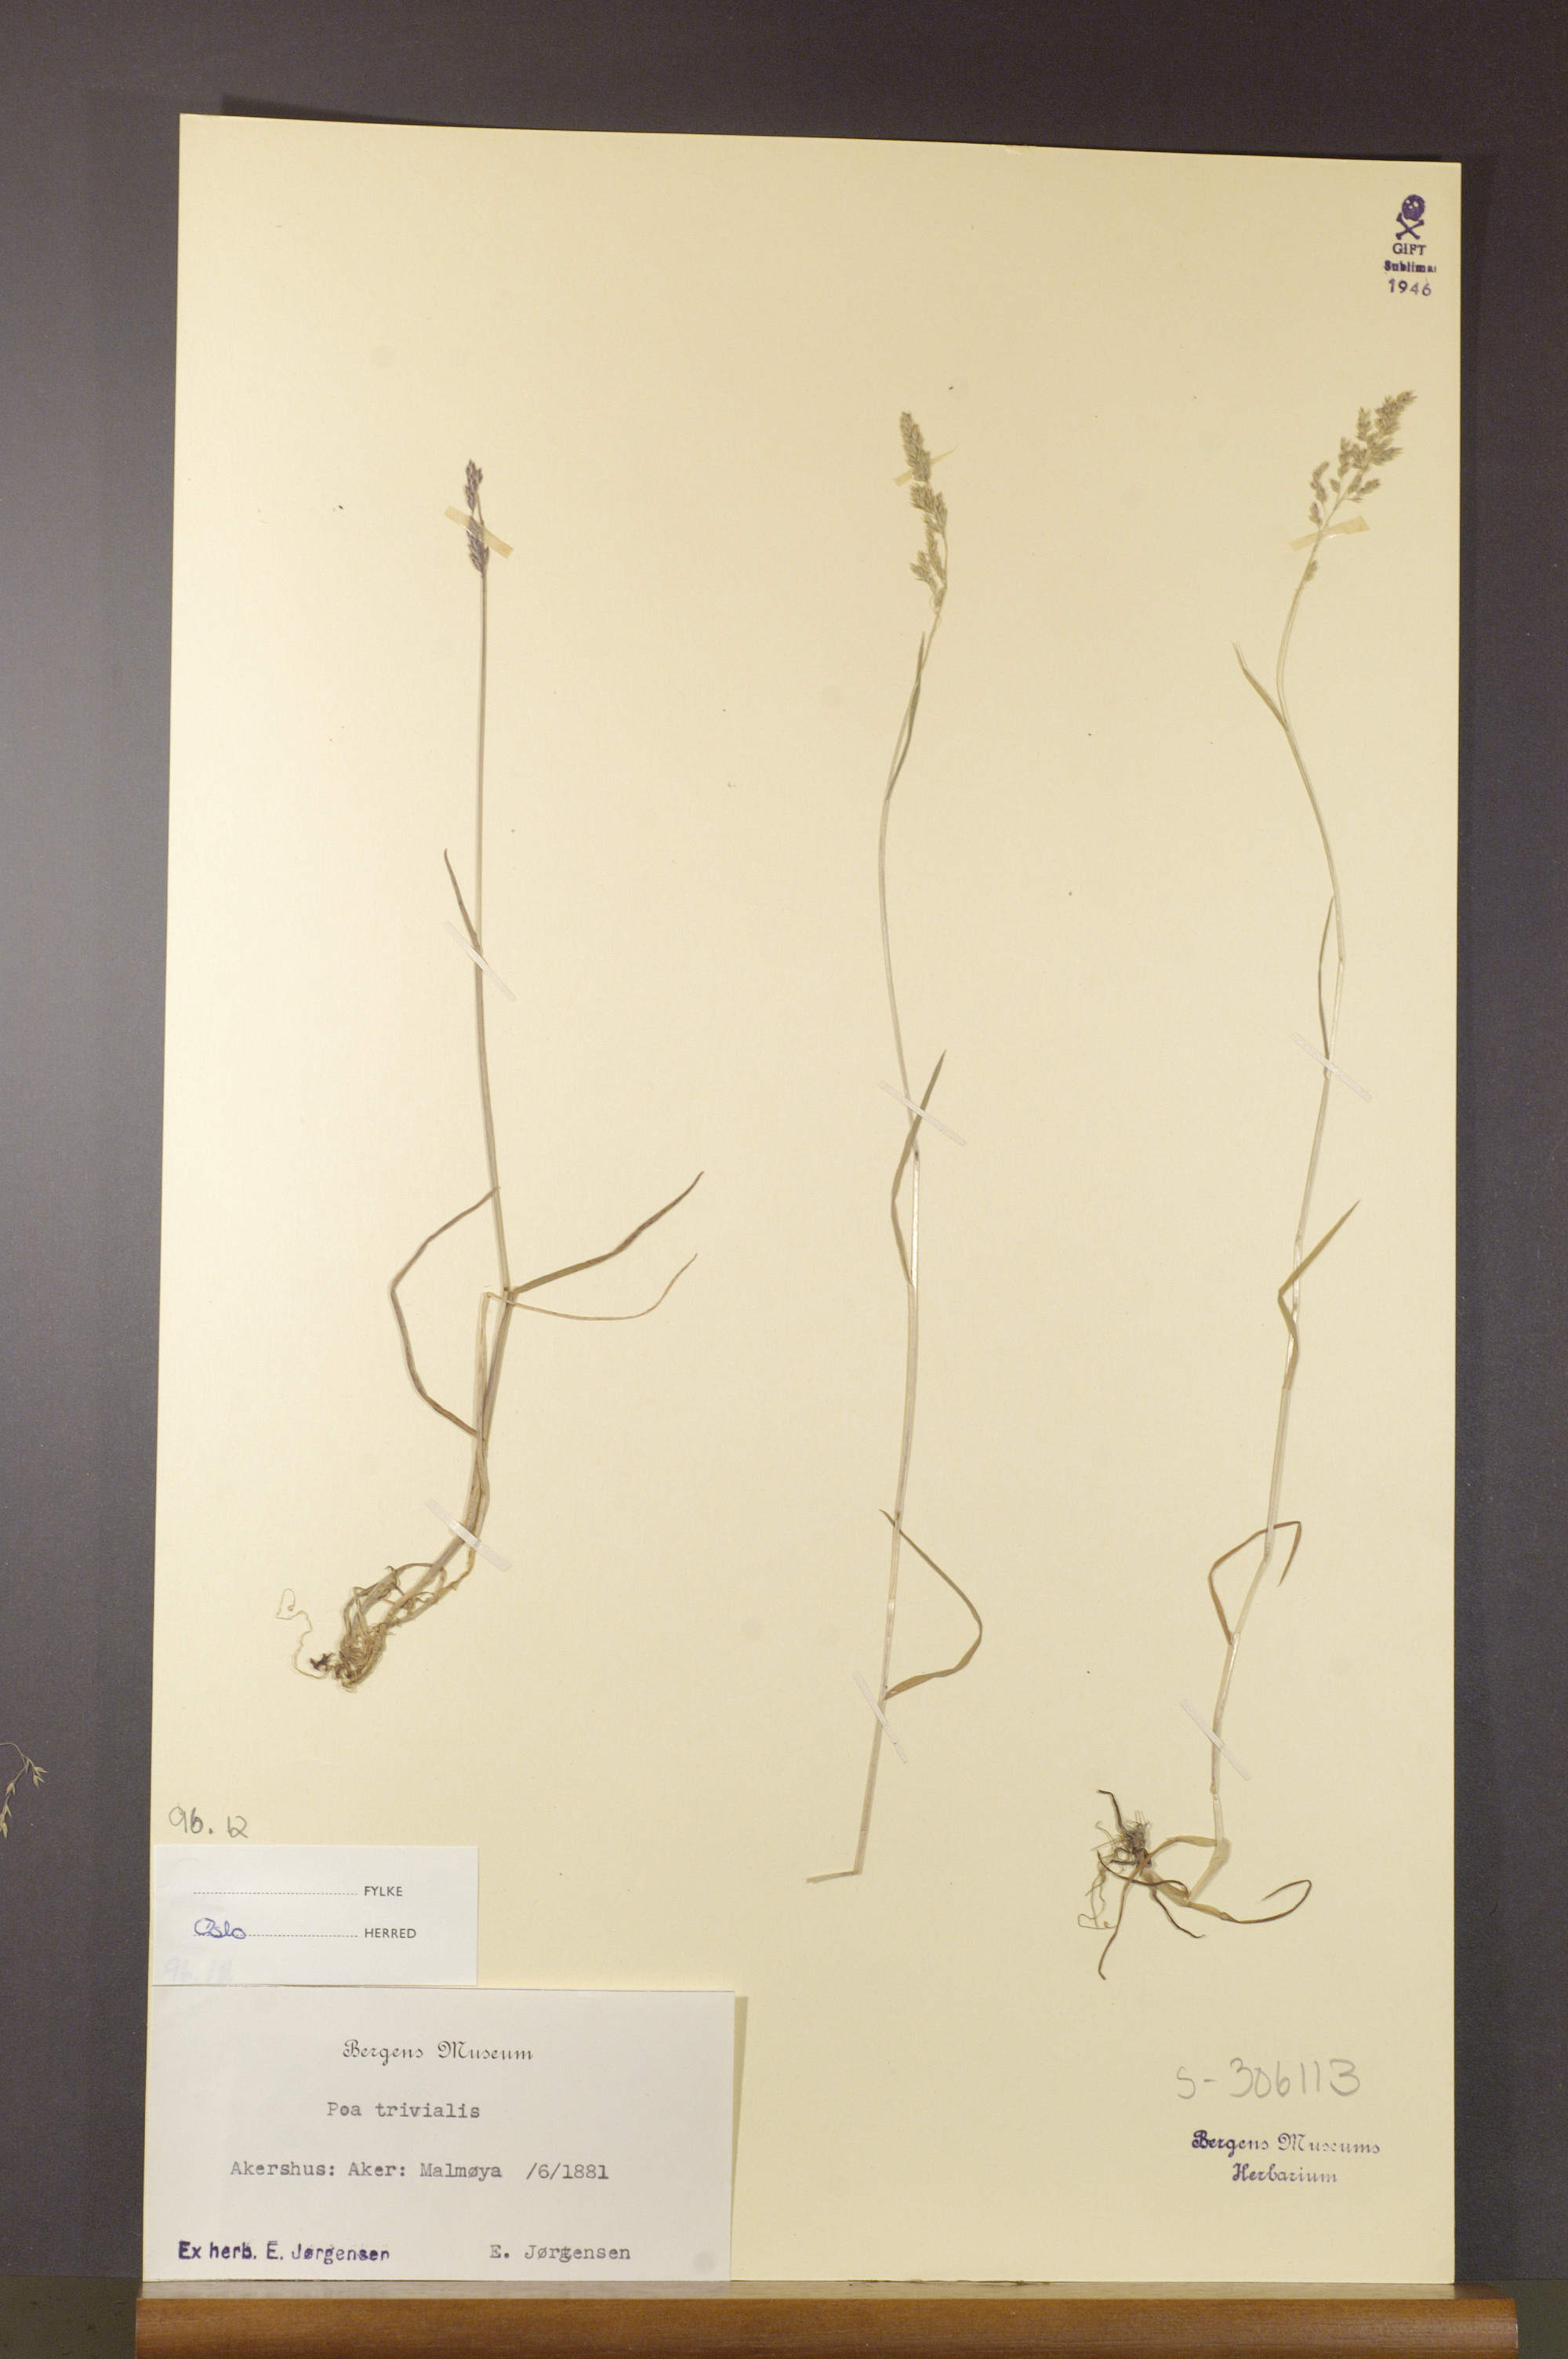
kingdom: Plantae
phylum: Tracheophyta
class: Liliopsida
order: Poales
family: Poaceae
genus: Poa
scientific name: Poa trivialis
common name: Rough bluegrass
